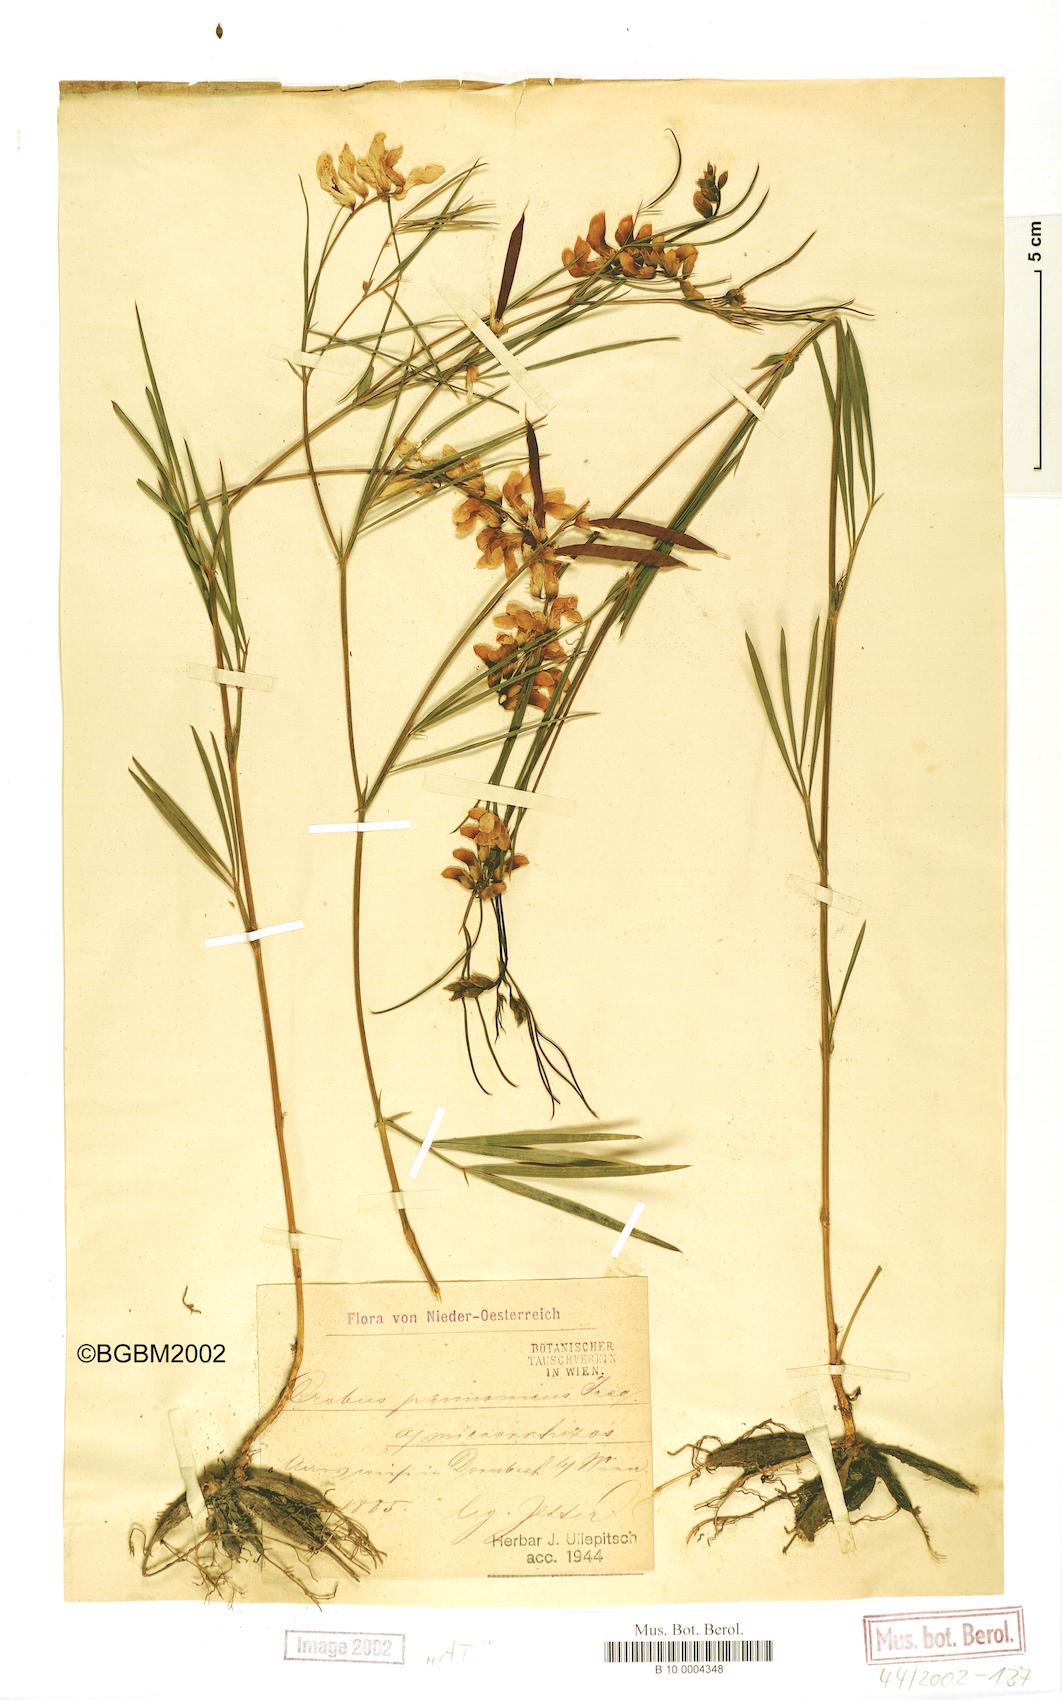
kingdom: Plantae
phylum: Tracheophyta
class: Magnoliopsida
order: Fabales
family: Fabaceae
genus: Lathyrus
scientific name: Lathyrus pannonicus
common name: Pea
